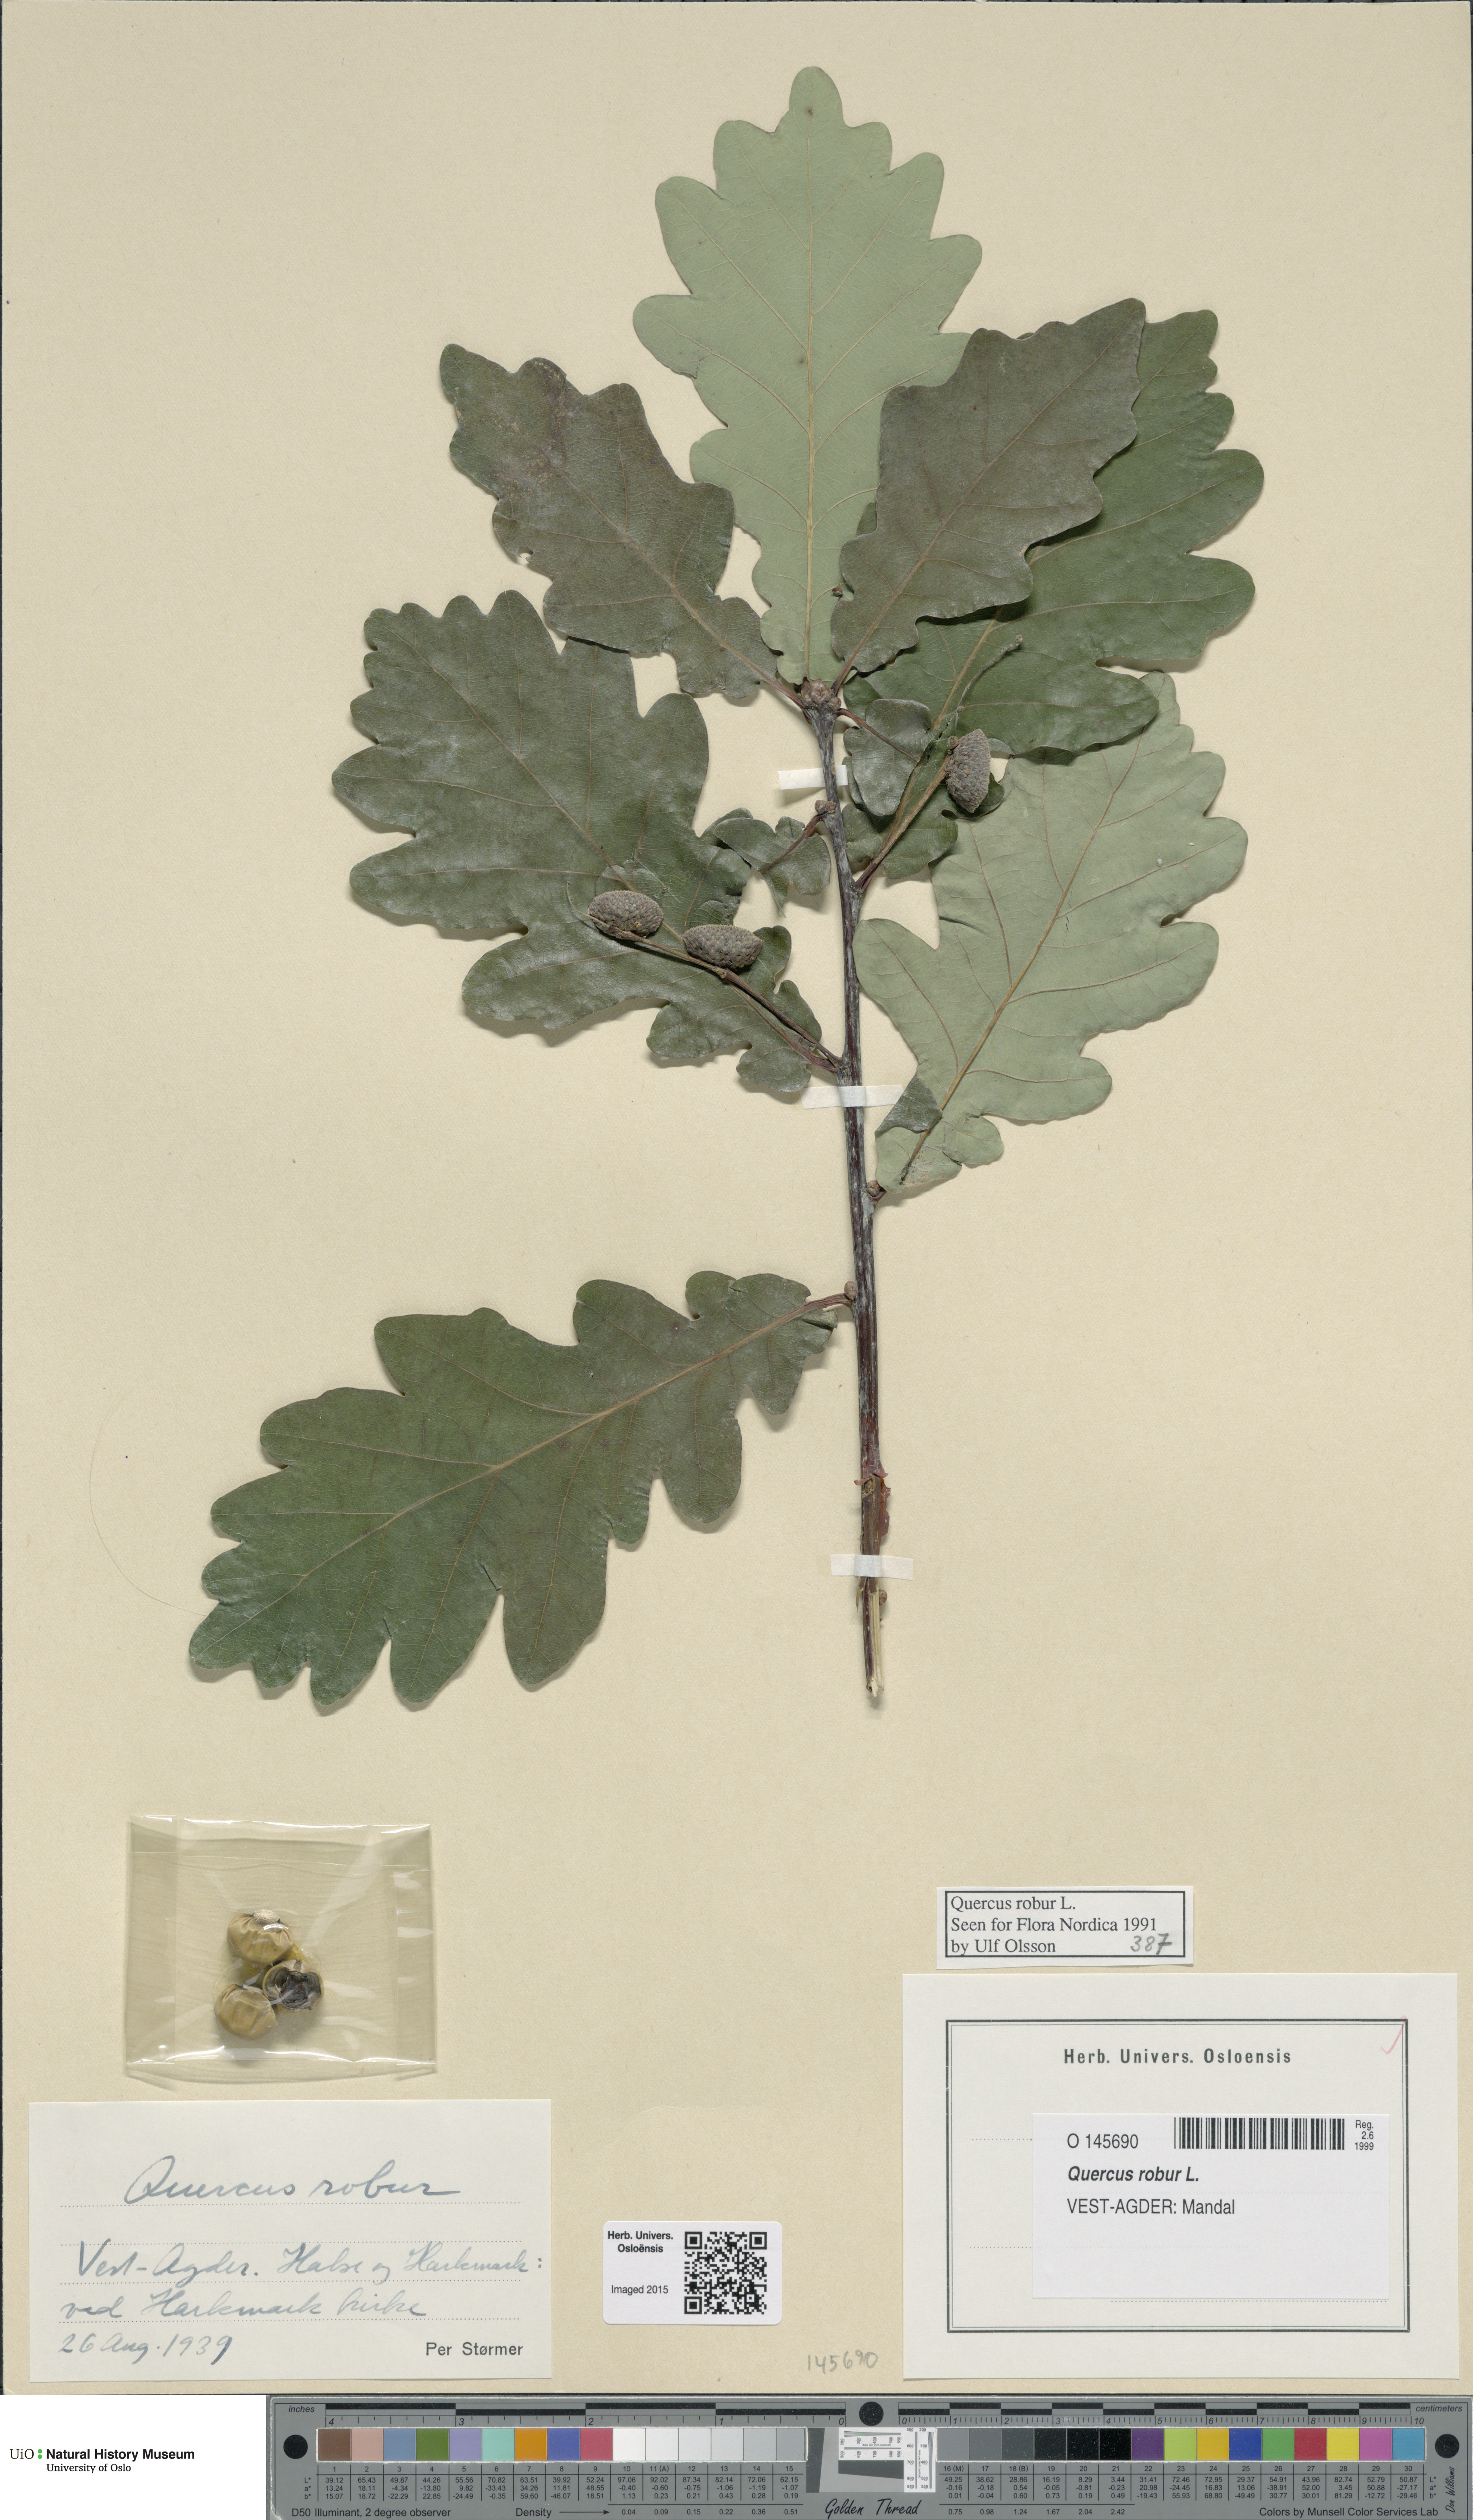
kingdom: Plantae
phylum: Tracheophyta
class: Magnoliopsida
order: Fagales
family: Fagaceae
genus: Quercus
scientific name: Quercus robur
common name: Pedunculate oak
